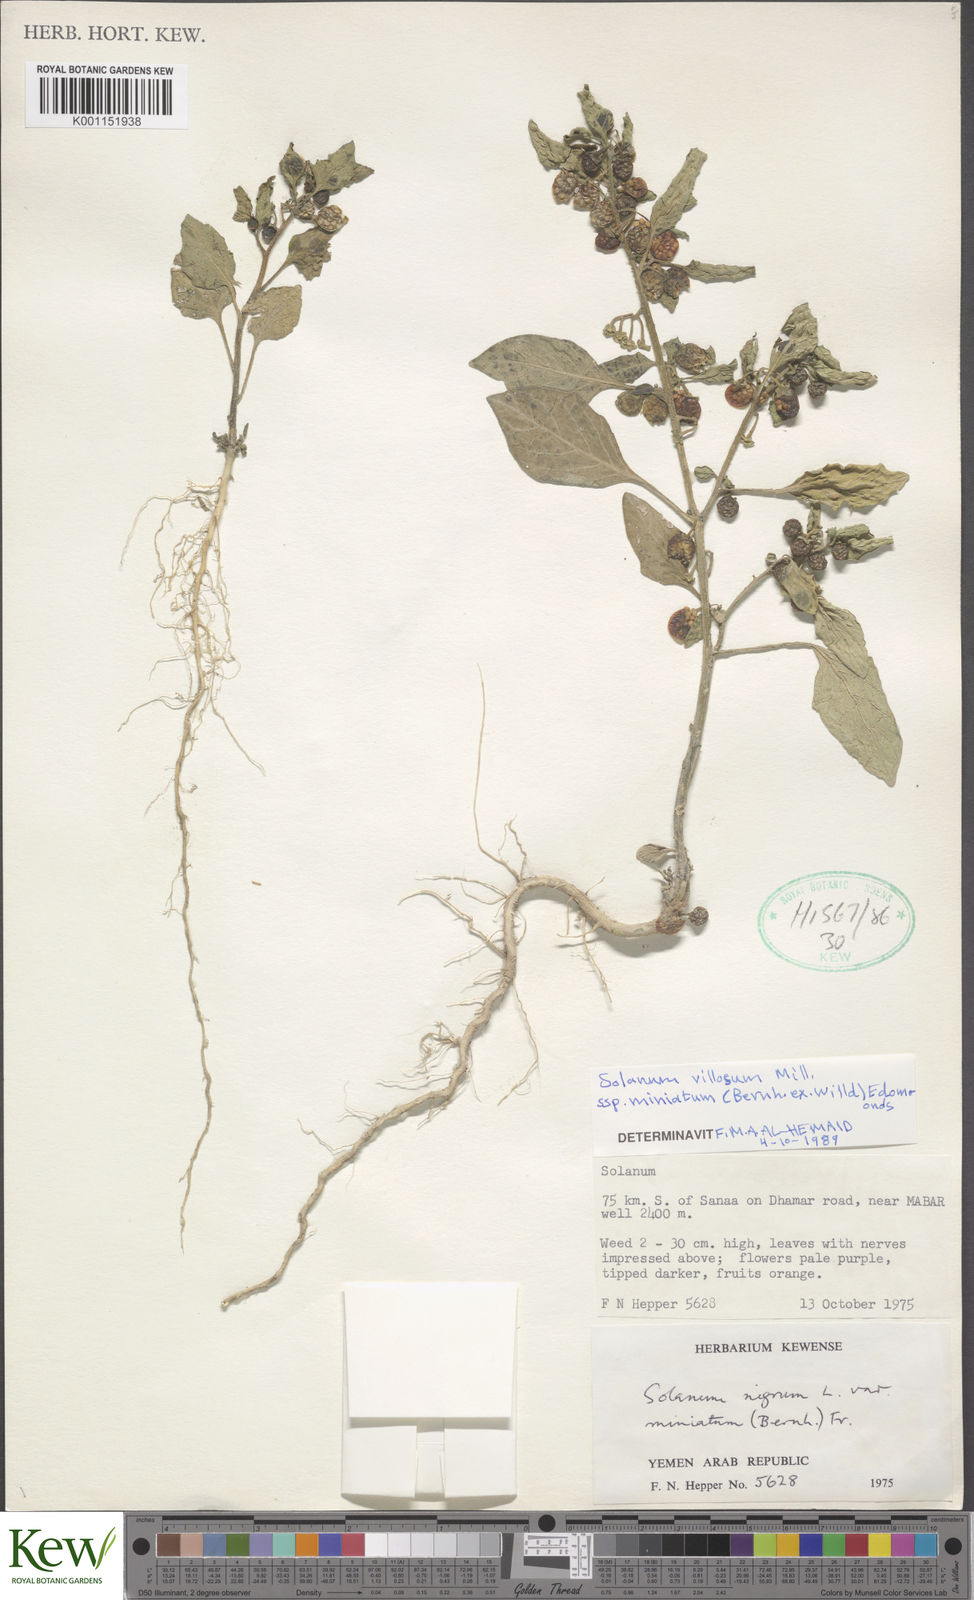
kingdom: Plantae
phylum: Tracheophyta
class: Magnoliopsida
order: Solanales
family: Solanaceae
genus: Solanum
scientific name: Solanum villosum
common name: Red nightshade
